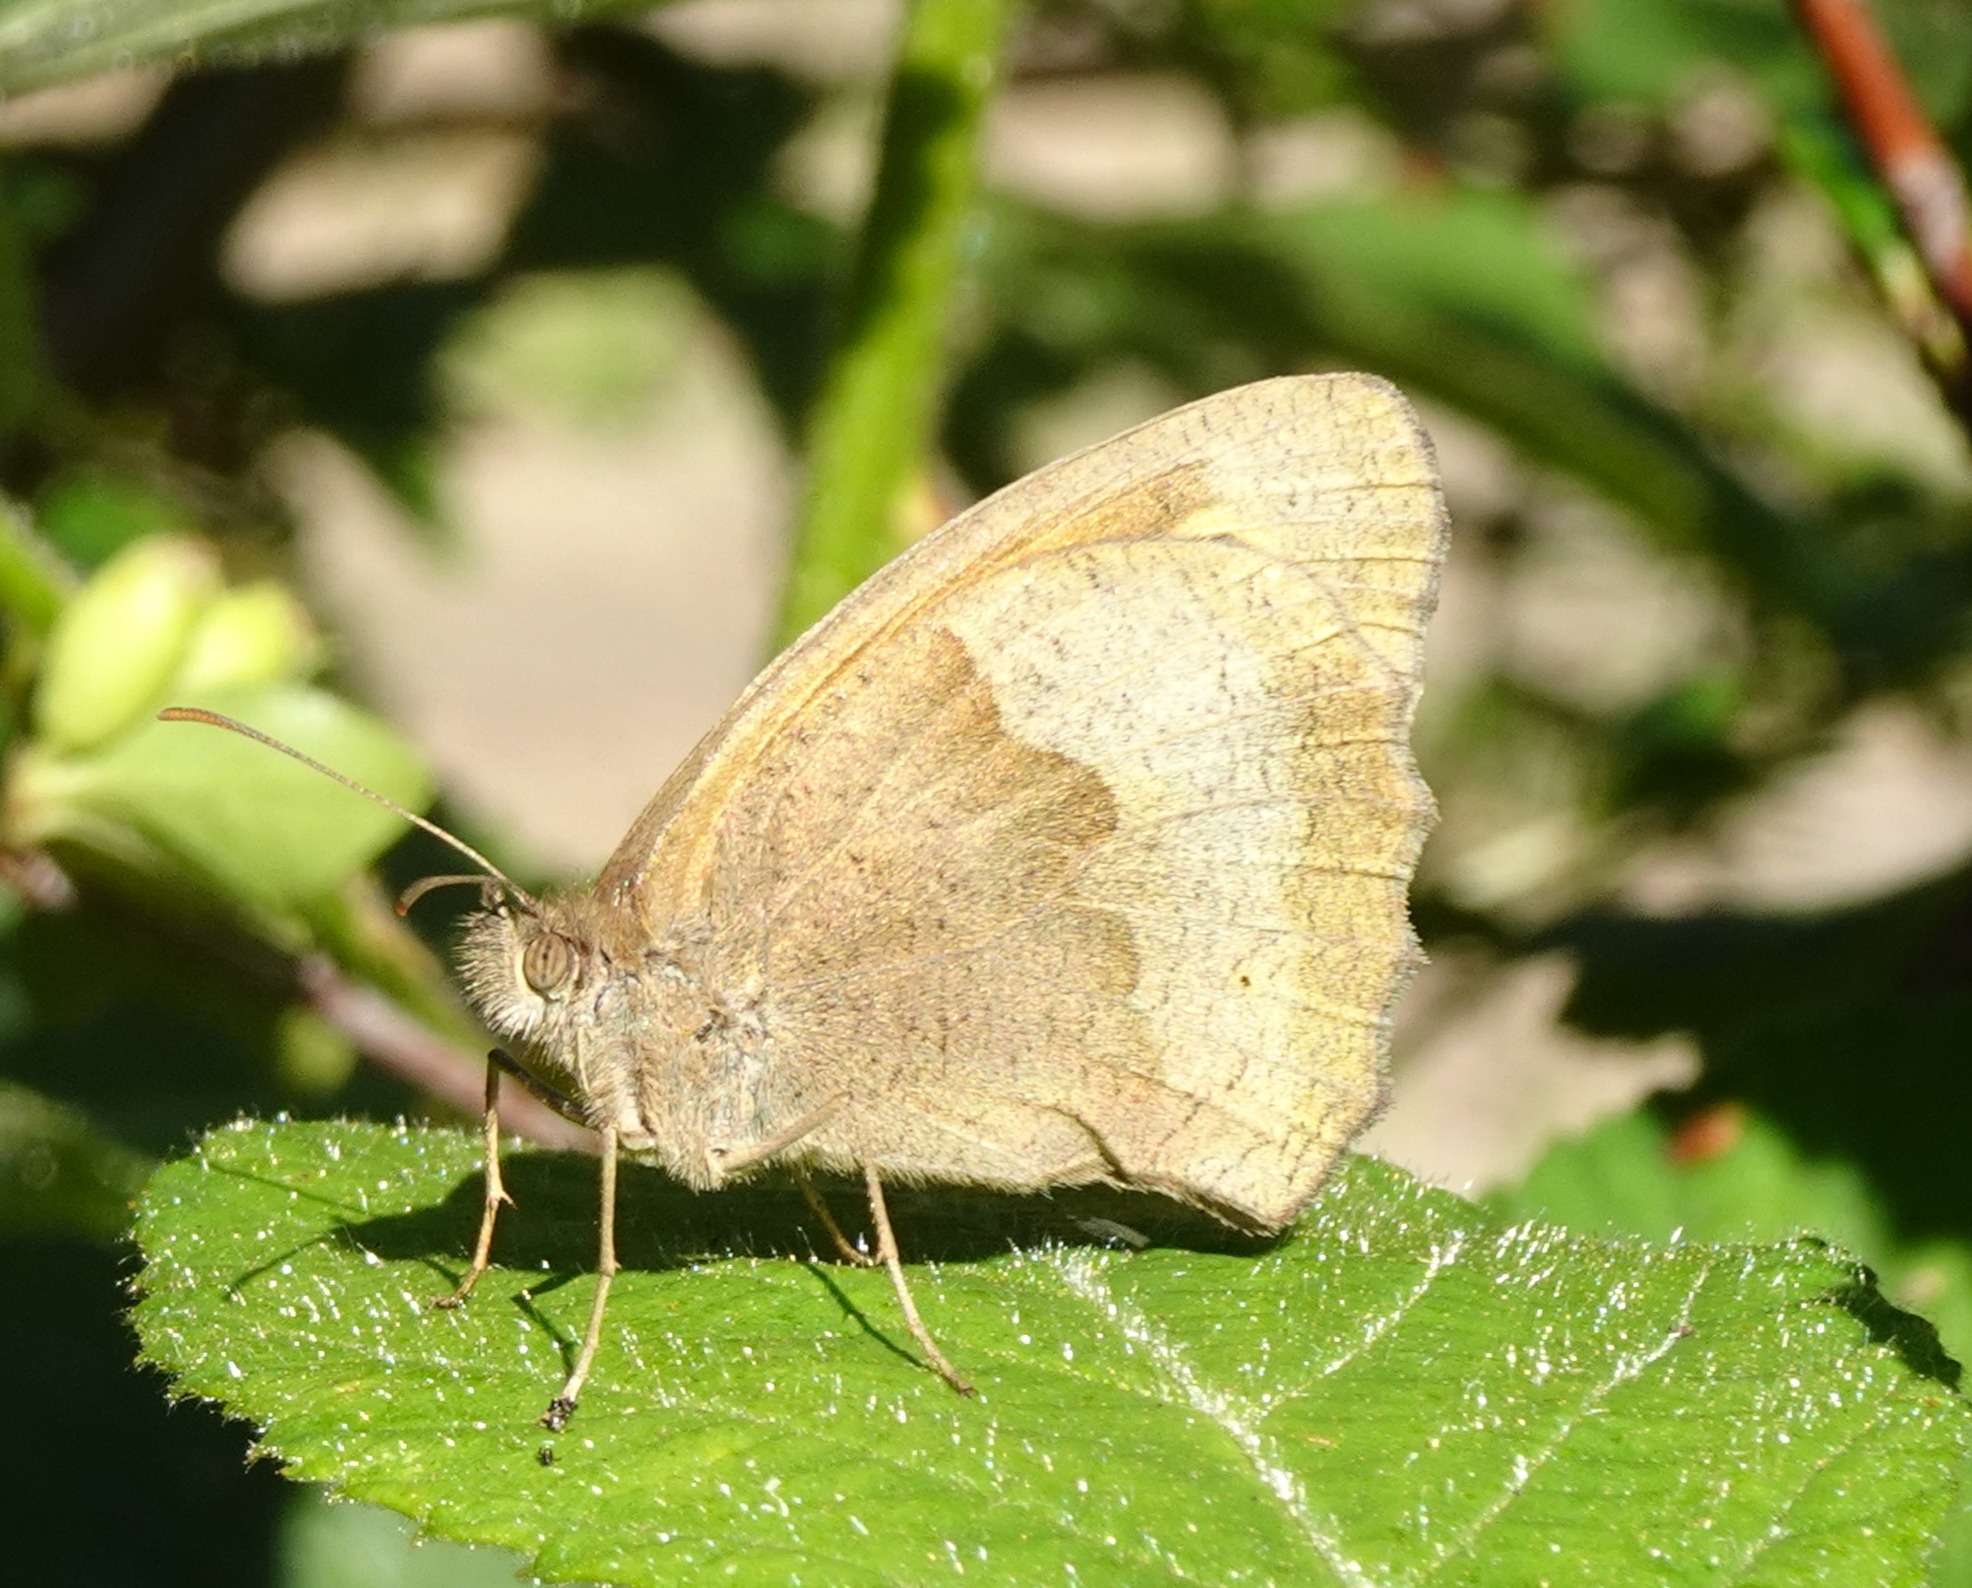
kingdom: Animalia
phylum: Arthropoda
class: Insecta
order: Lepidoptera
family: Nymphalidae
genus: Maniola
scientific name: Maniola jurtina
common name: Græsrandøje
